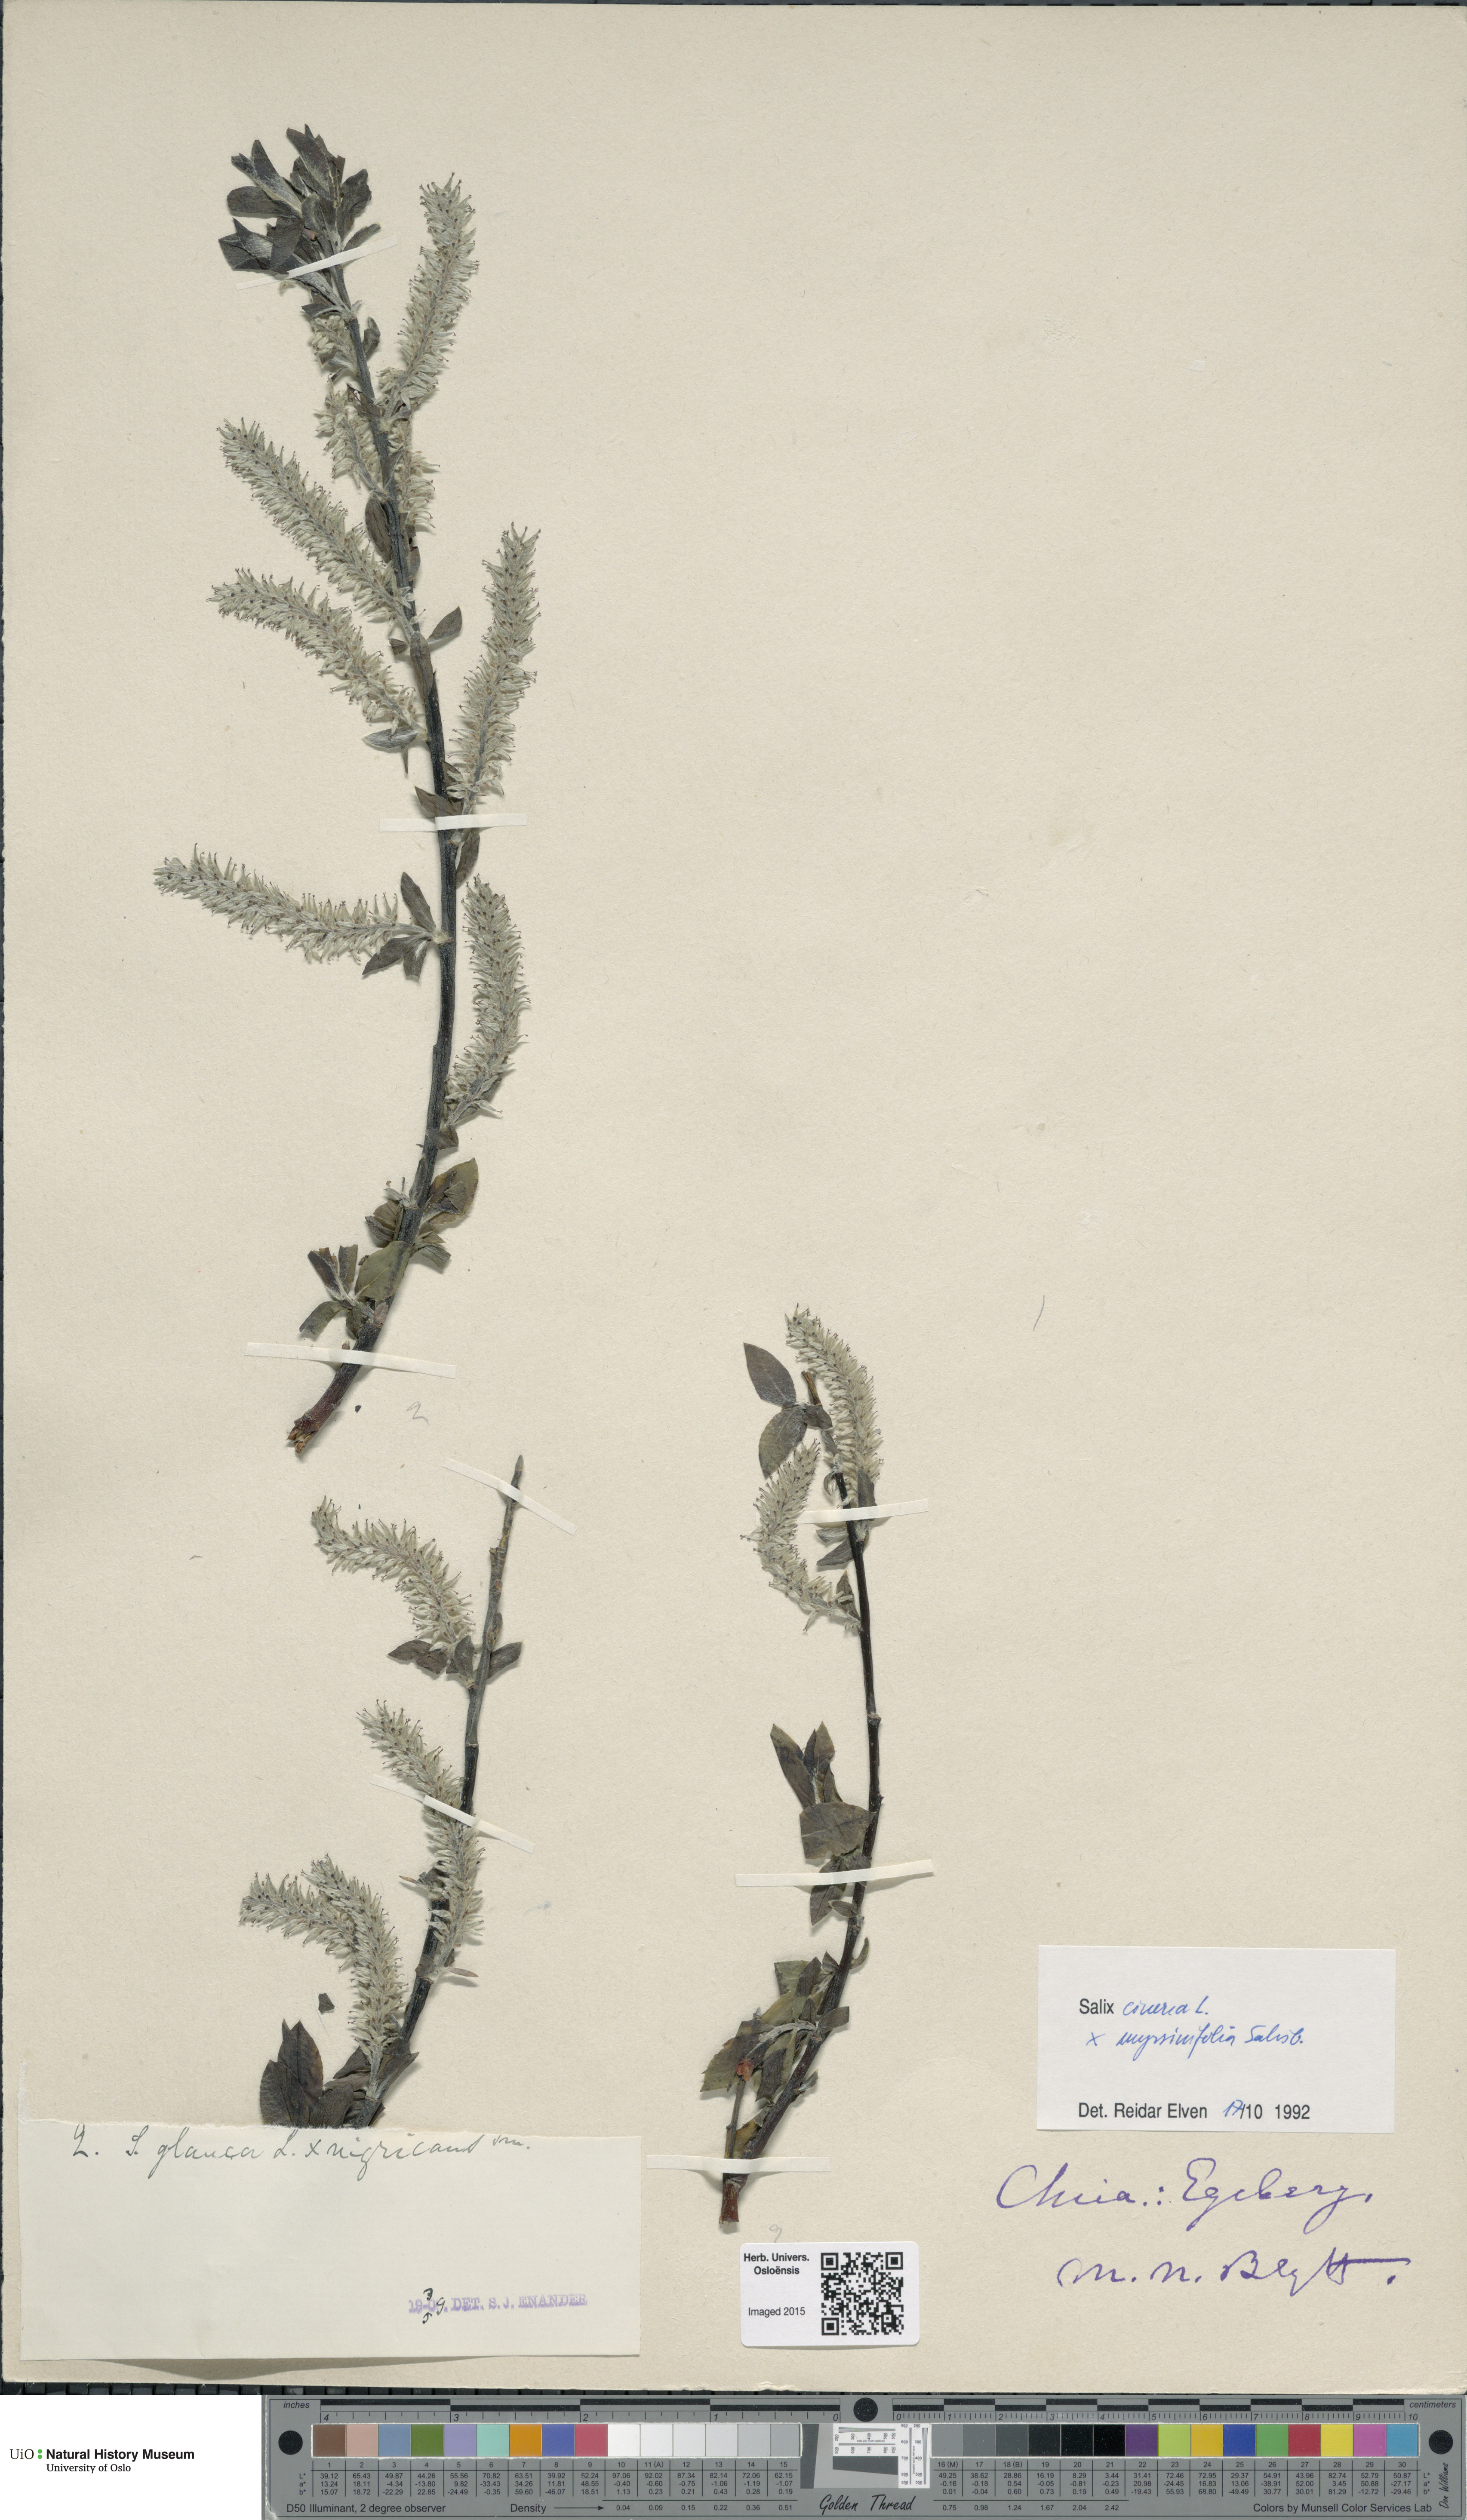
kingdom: Plantae
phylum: Tracheophyta
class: Magnoliopsida
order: Malpighiales
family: Salicaceae
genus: Salix
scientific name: Salix
